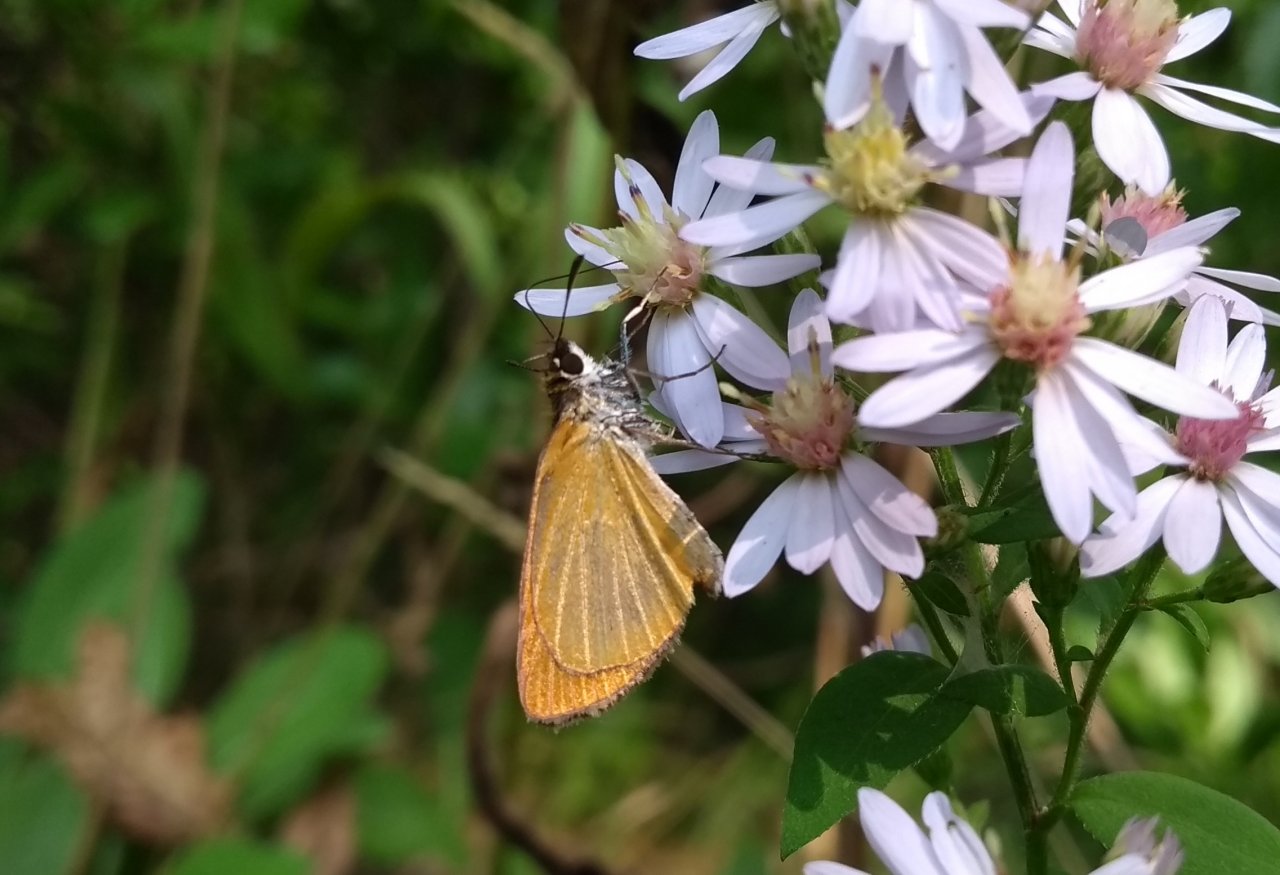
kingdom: Animalia
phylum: Arthropoda
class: Insecta
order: Lepidoptera
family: Hesperiidae
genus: Ancyloxypha
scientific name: Ancyloxypha numitor
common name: Least Skipper
